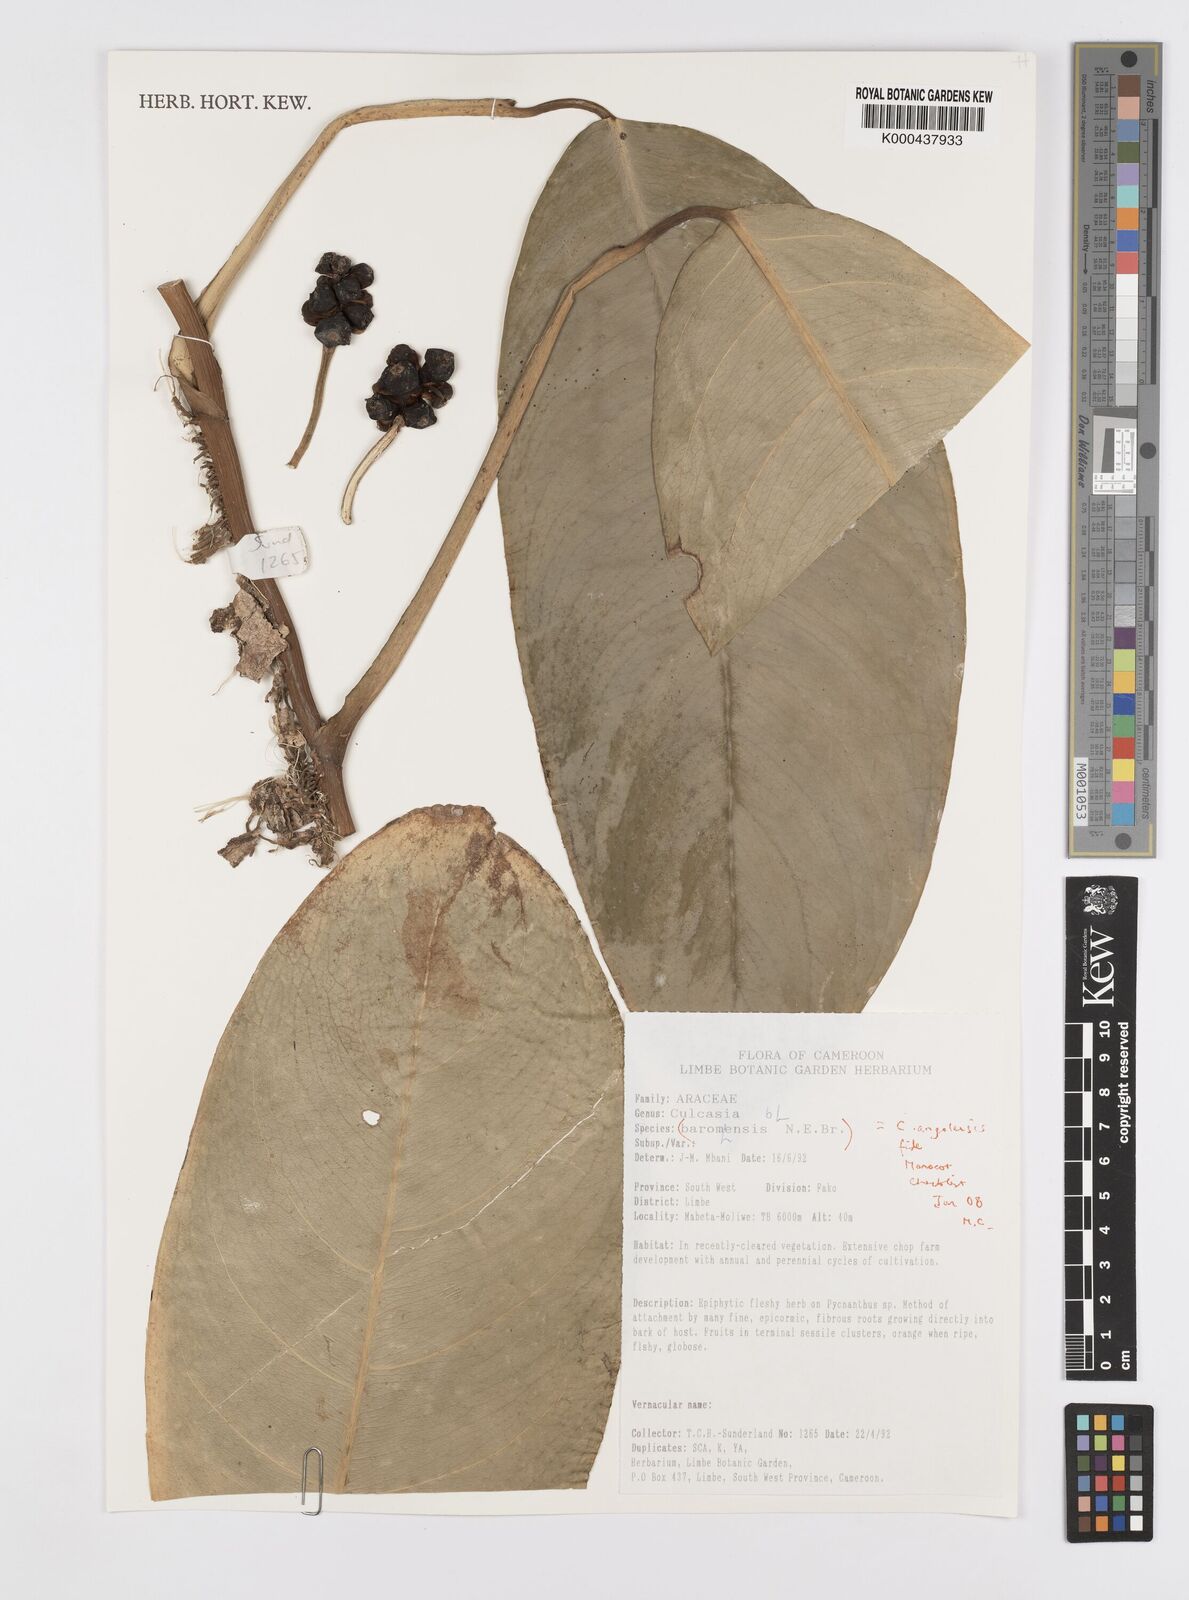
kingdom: Plantae
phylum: Tracheophyta
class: Liliopsida
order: Alismatales
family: Araceae
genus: Culcasia
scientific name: Culcasia angolensis
